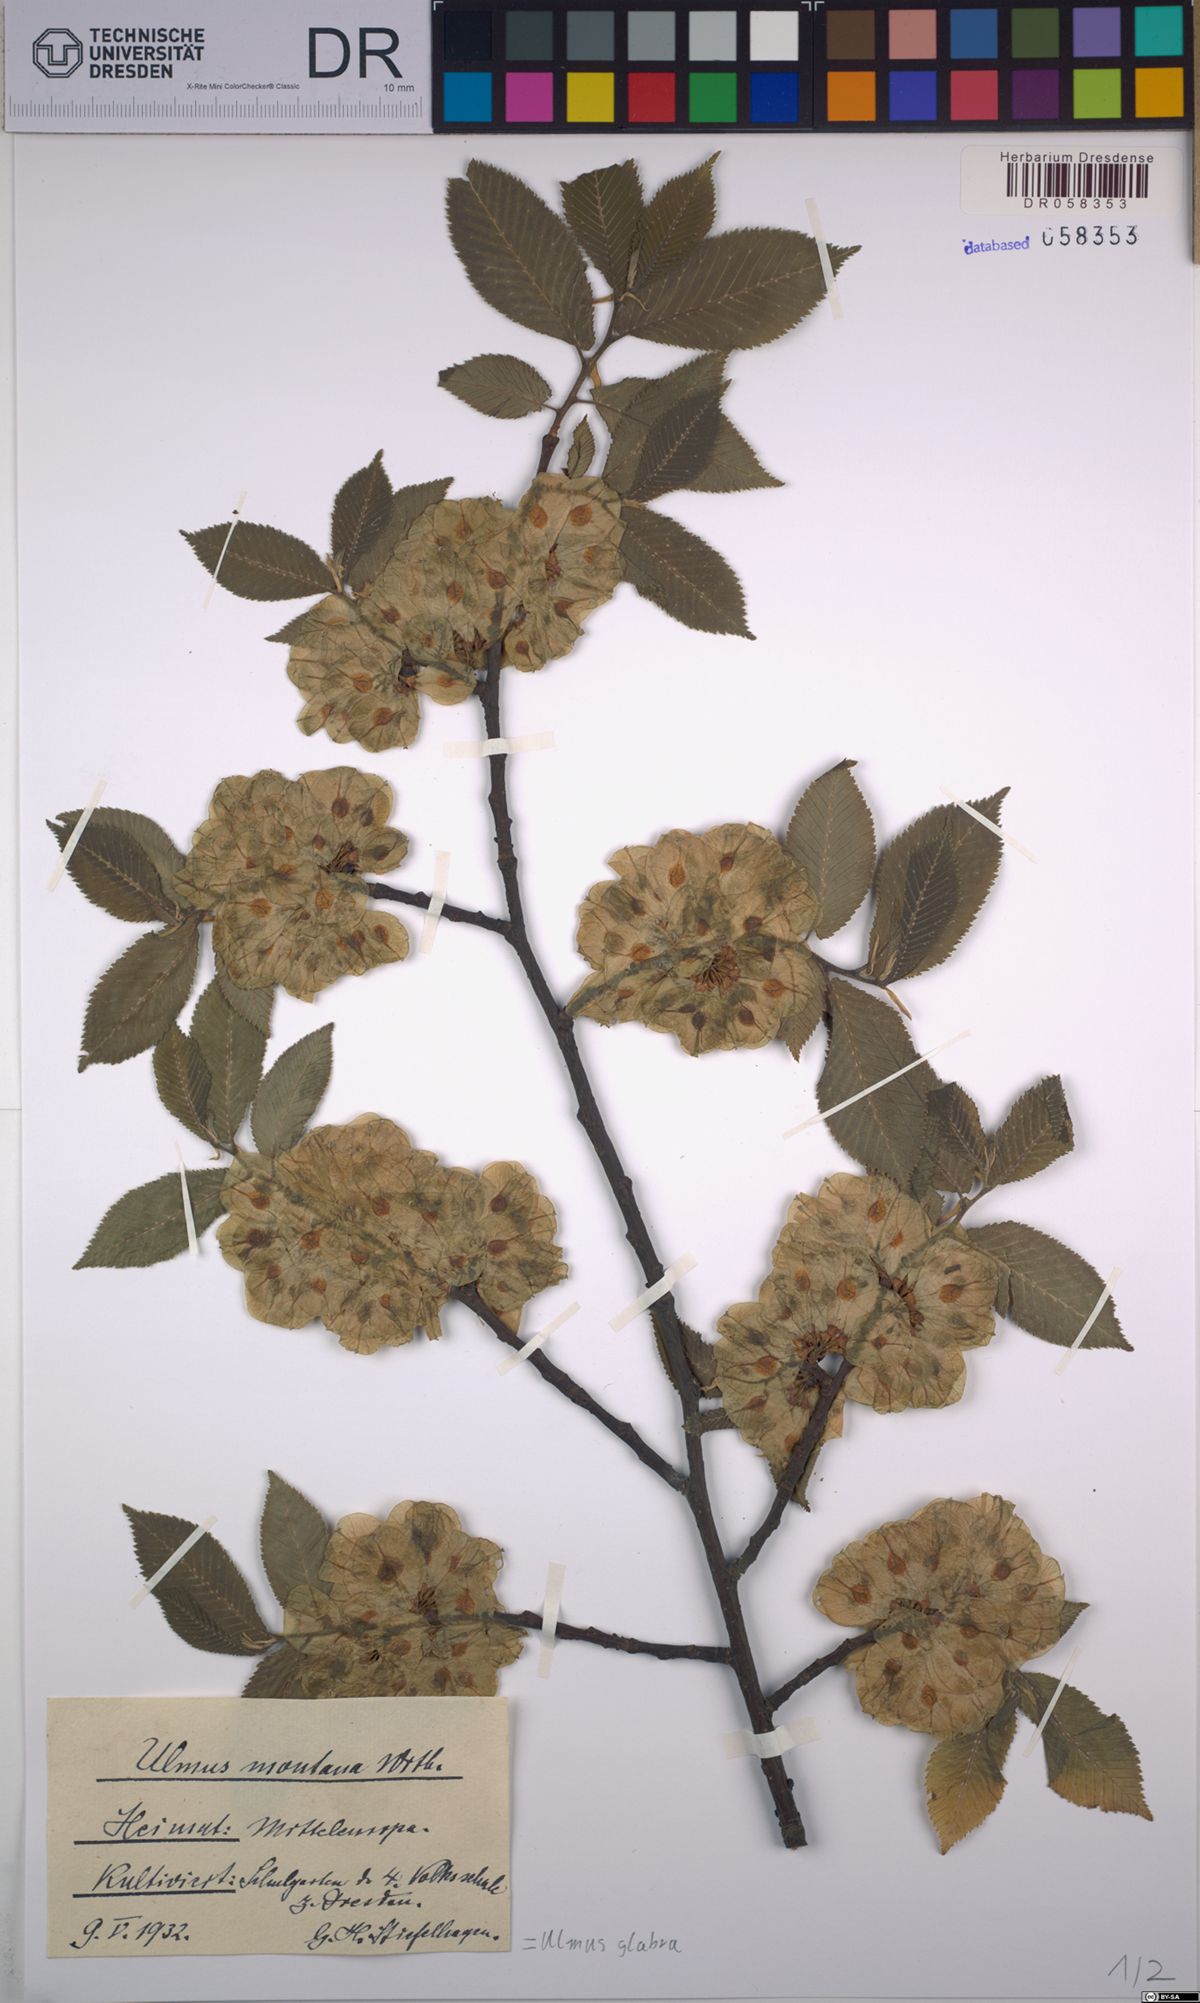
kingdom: Plantae
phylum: Tracheophyta
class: Magnoliopsida
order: Rosales
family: Ulmaceae
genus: Ulmus
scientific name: Ulmus glabra
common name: Wych elm
